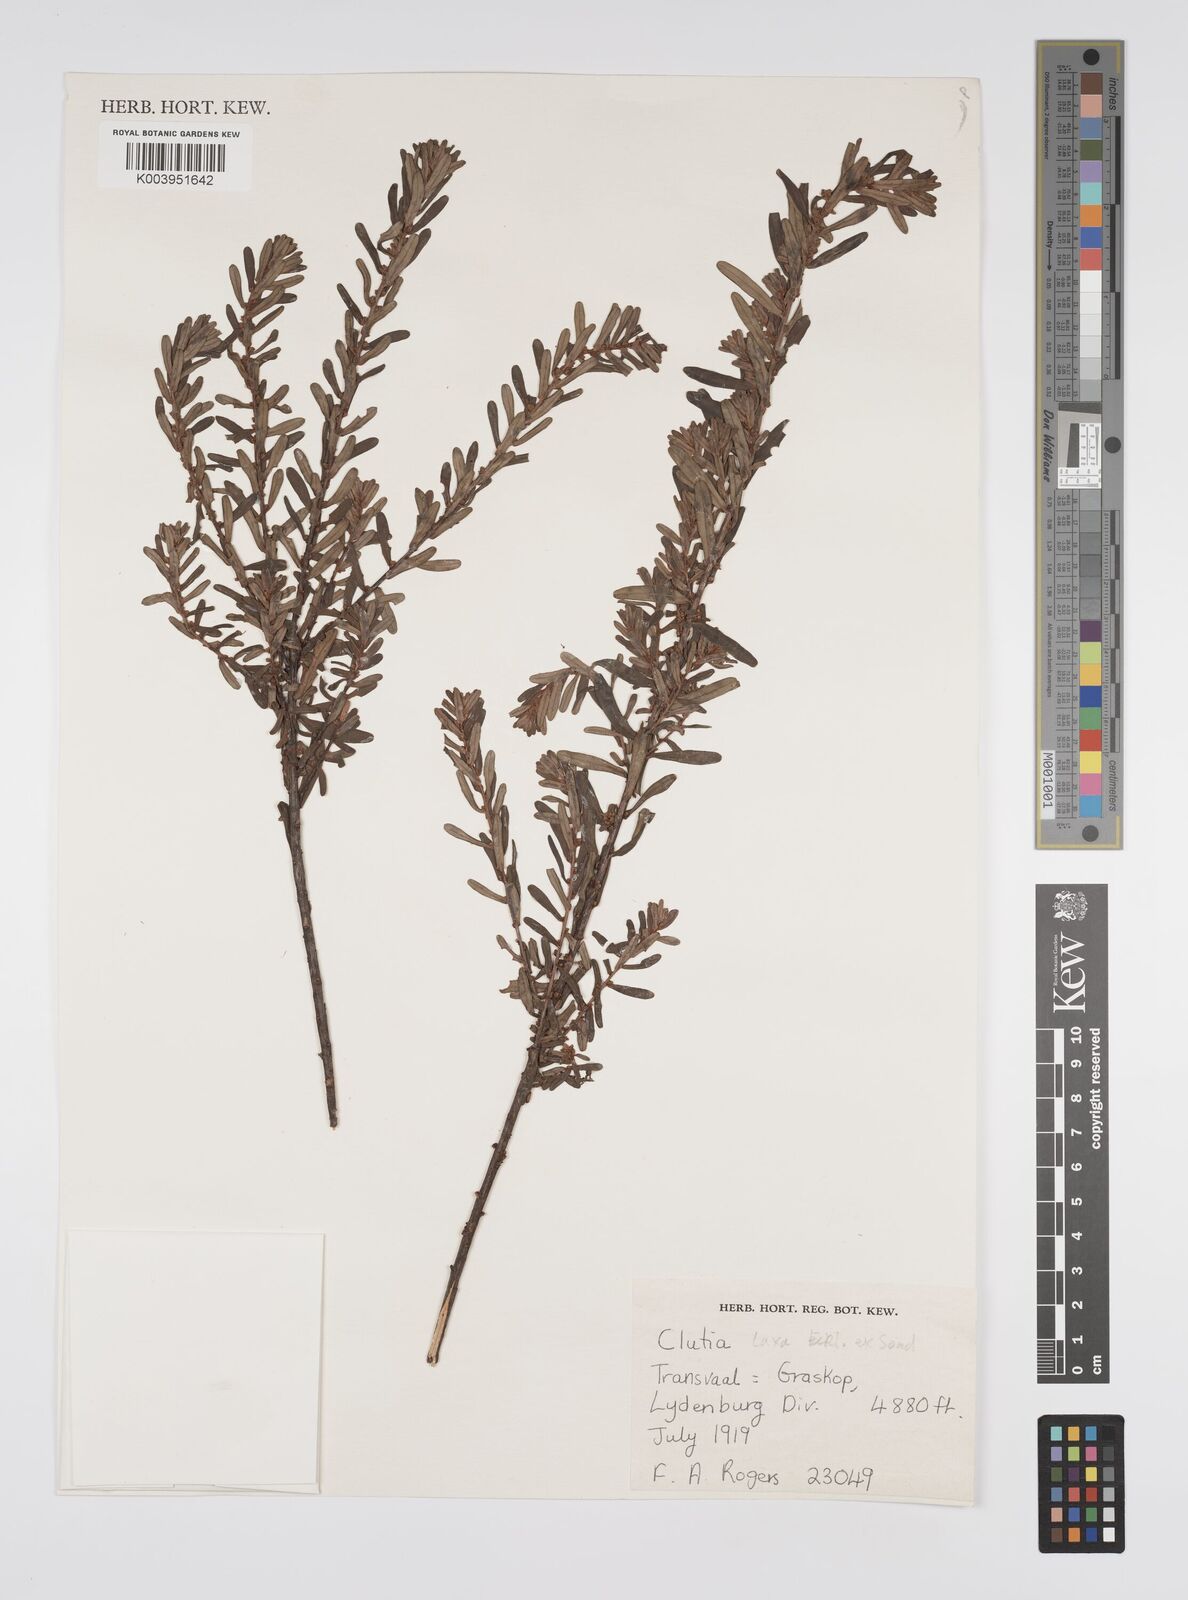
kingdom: Plantae
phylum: Tracheophyta
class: Magnoliopsida
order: Malpighiales
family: Peraceae
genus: Clutia
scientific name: Clutia laxa
